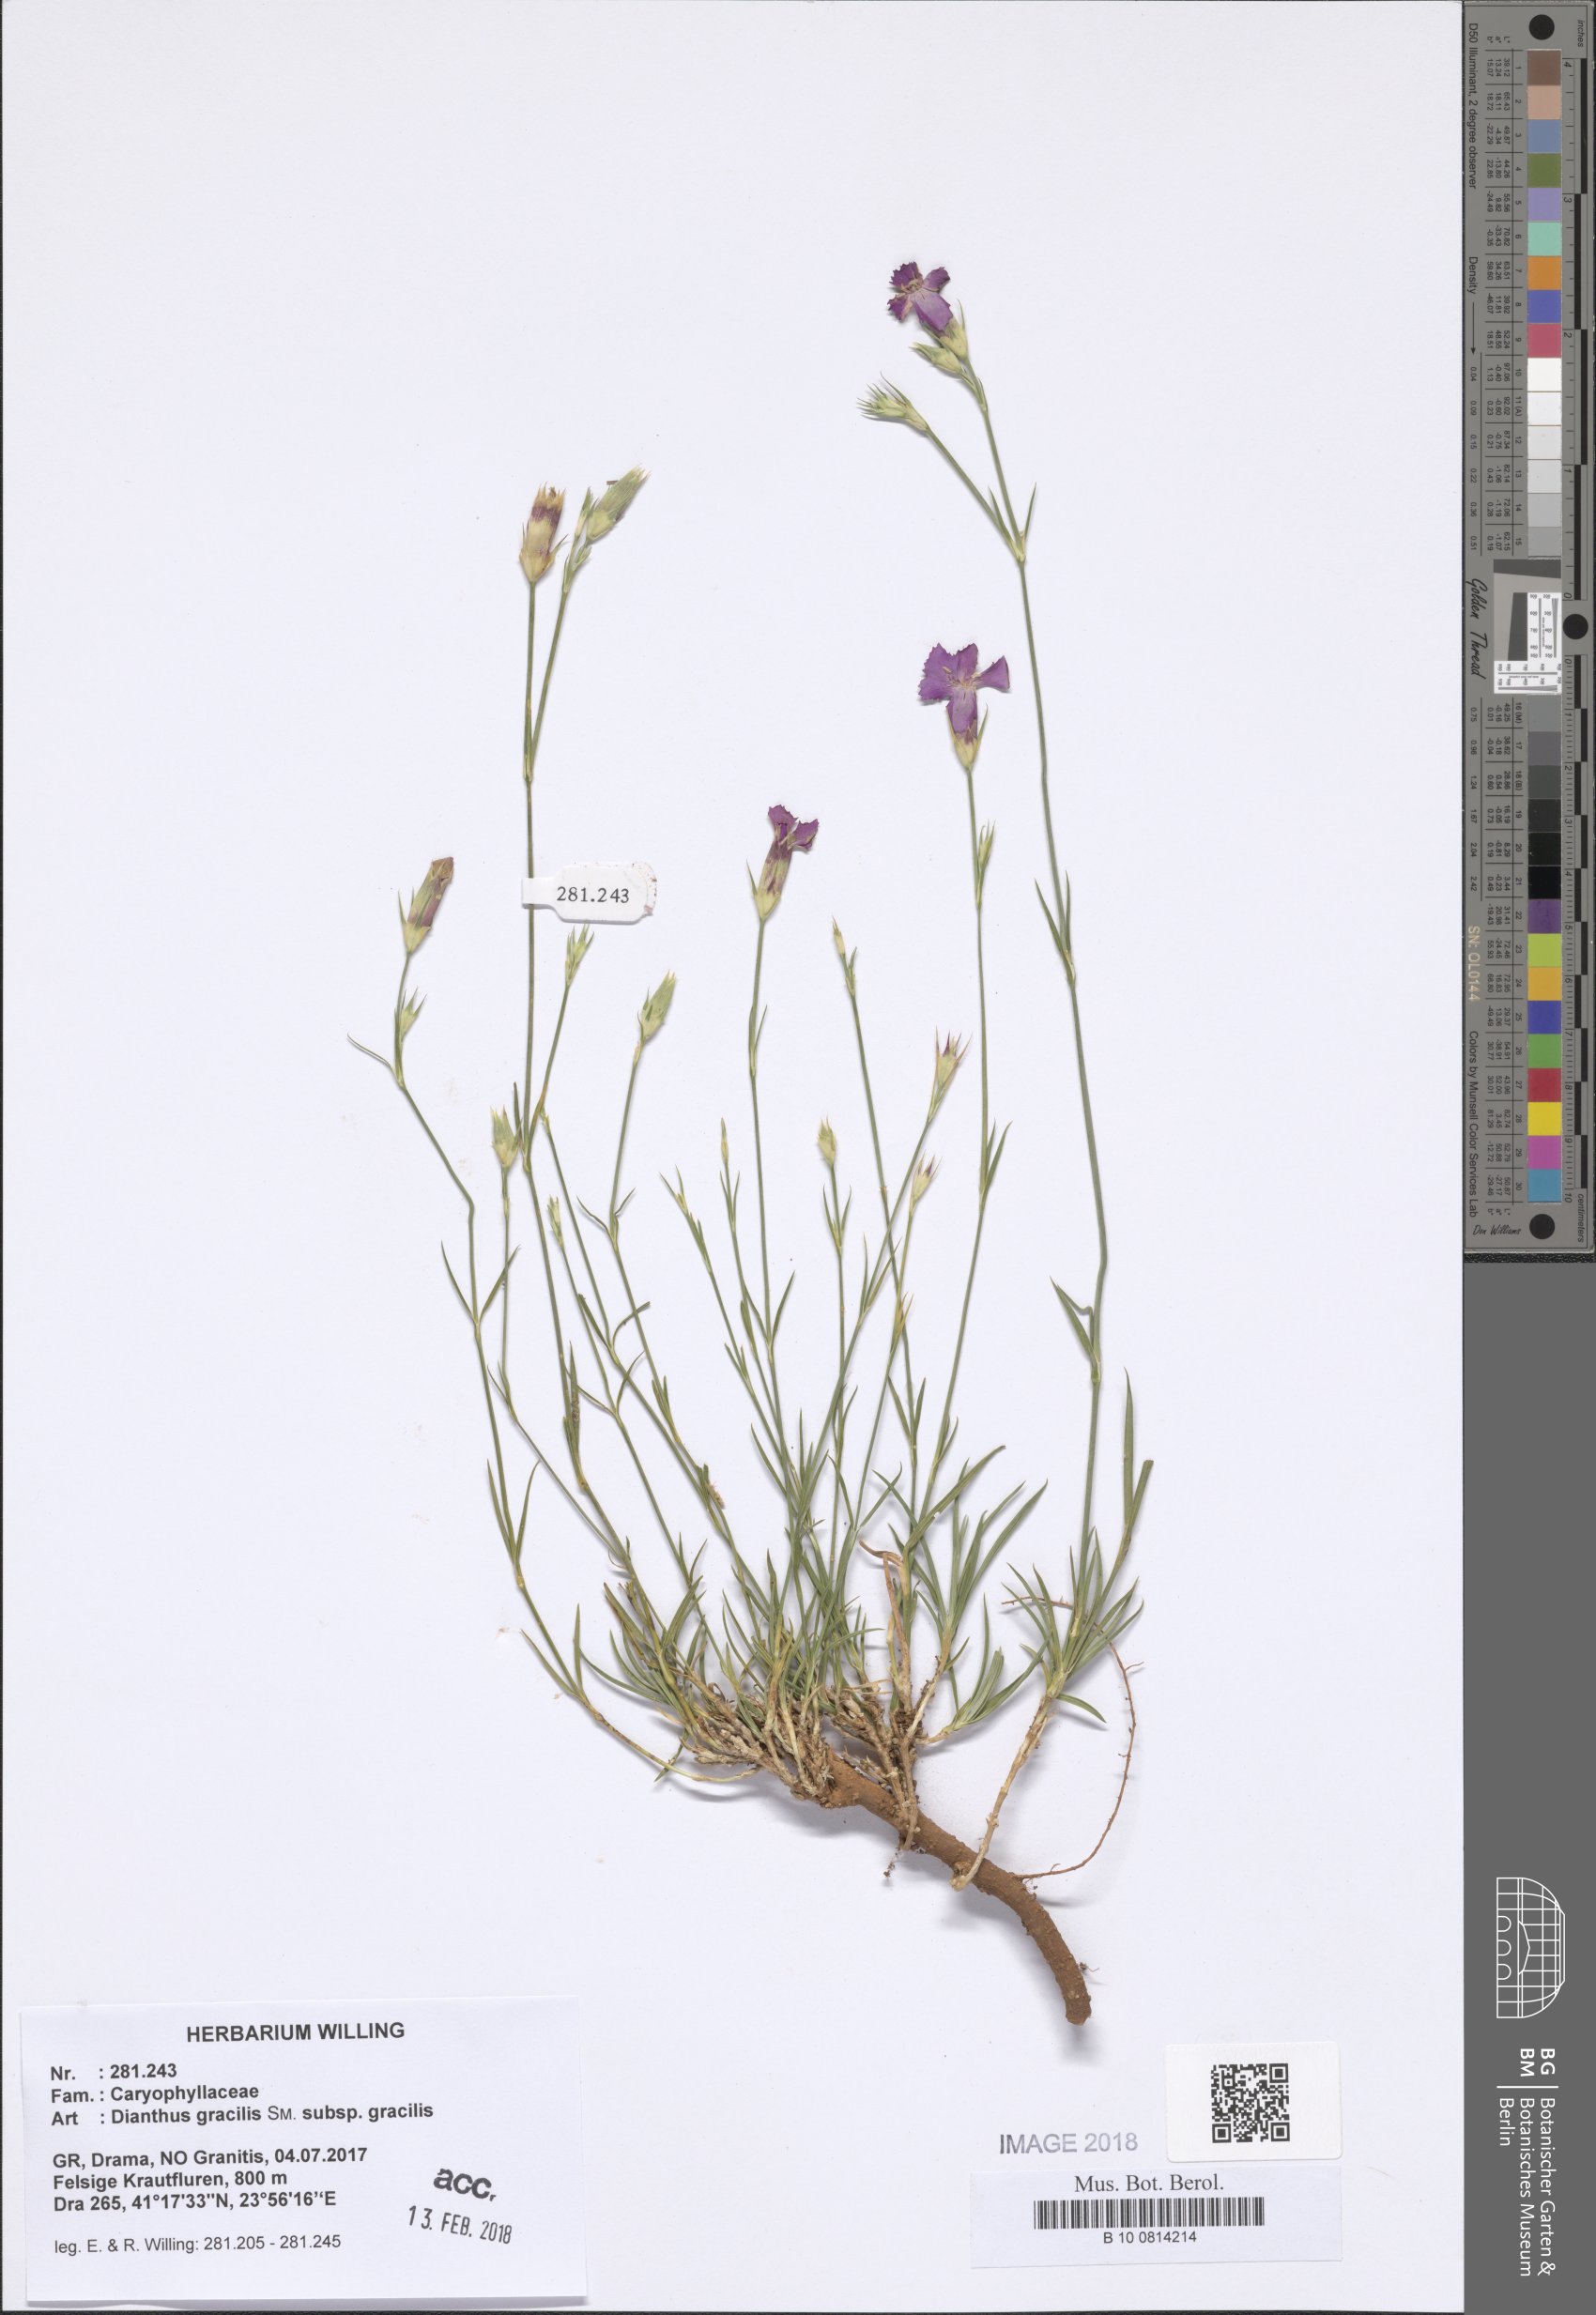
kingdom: Plantae
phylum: Tracheophyta
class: Magnoliopsida
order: Caryophyllales
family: Caryophyllaceae
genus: Dianthus
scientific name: Dianthus gracilis
